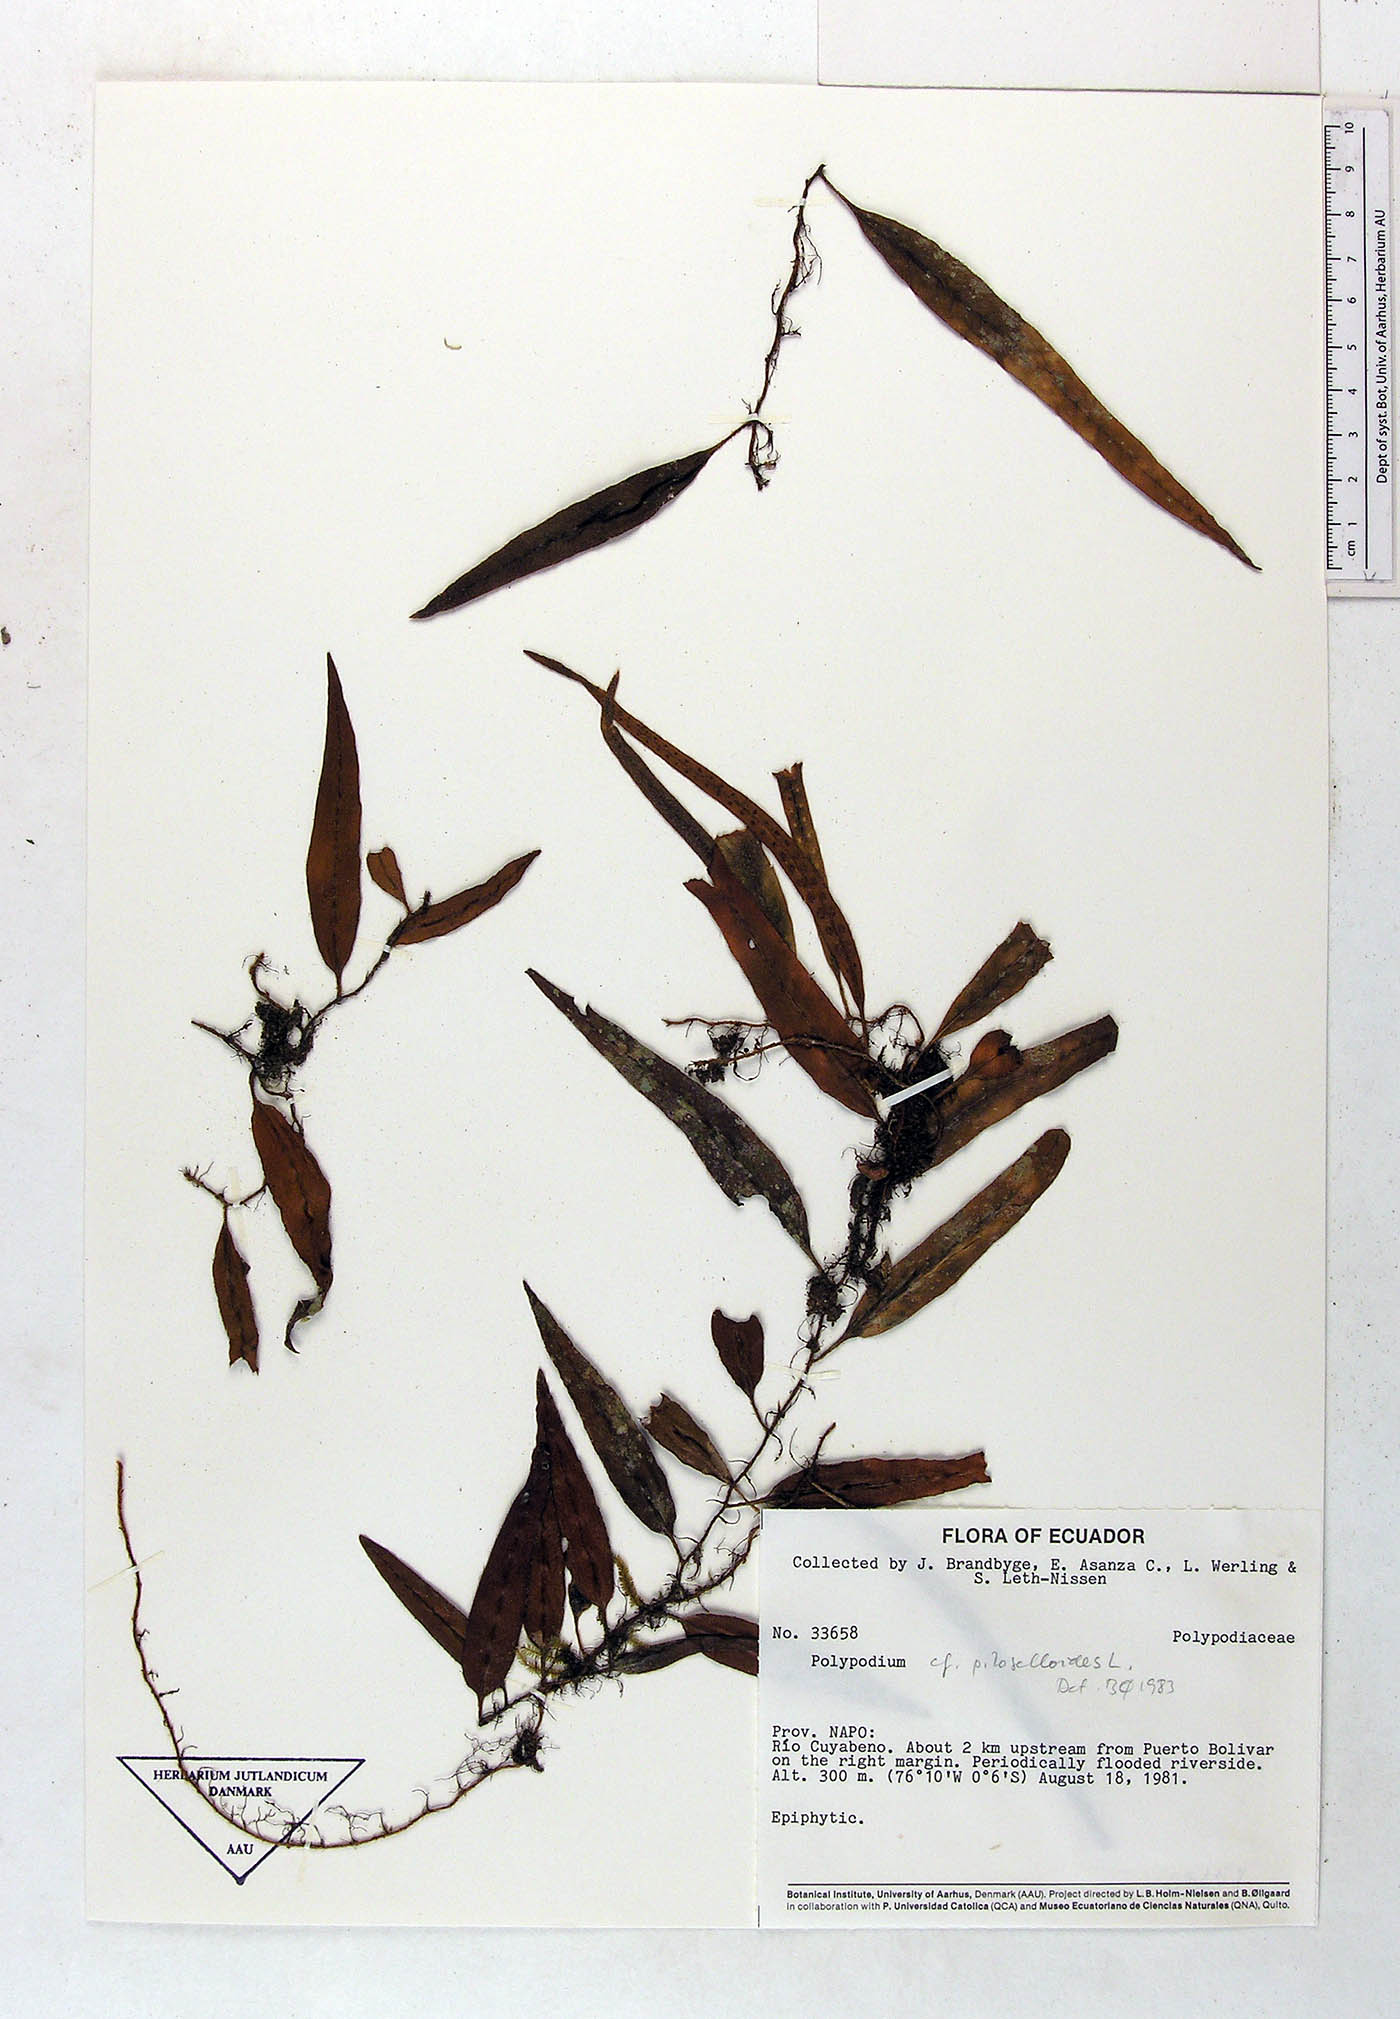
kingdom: Plantae
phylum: Tracheophyta
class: Polypodiopsida
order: Polypodiales
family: Polypodiaceae
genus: Microgramma
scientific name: Microgramma piloselloides
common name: Hairy snakefern
